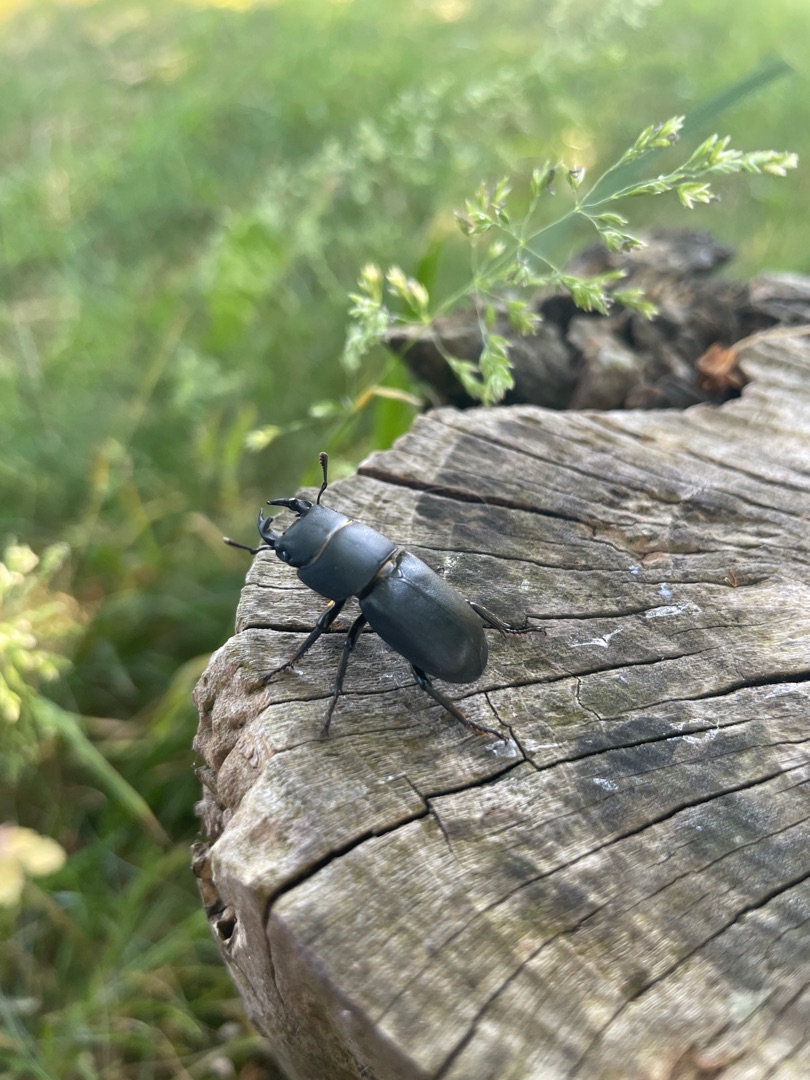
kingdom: Animalia
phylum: Arthropoda
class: Insecta
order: Coleoptera
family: Lucanidae
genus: Dorcus
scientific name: Dorcus parallelipipedus
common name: Bøghjort
